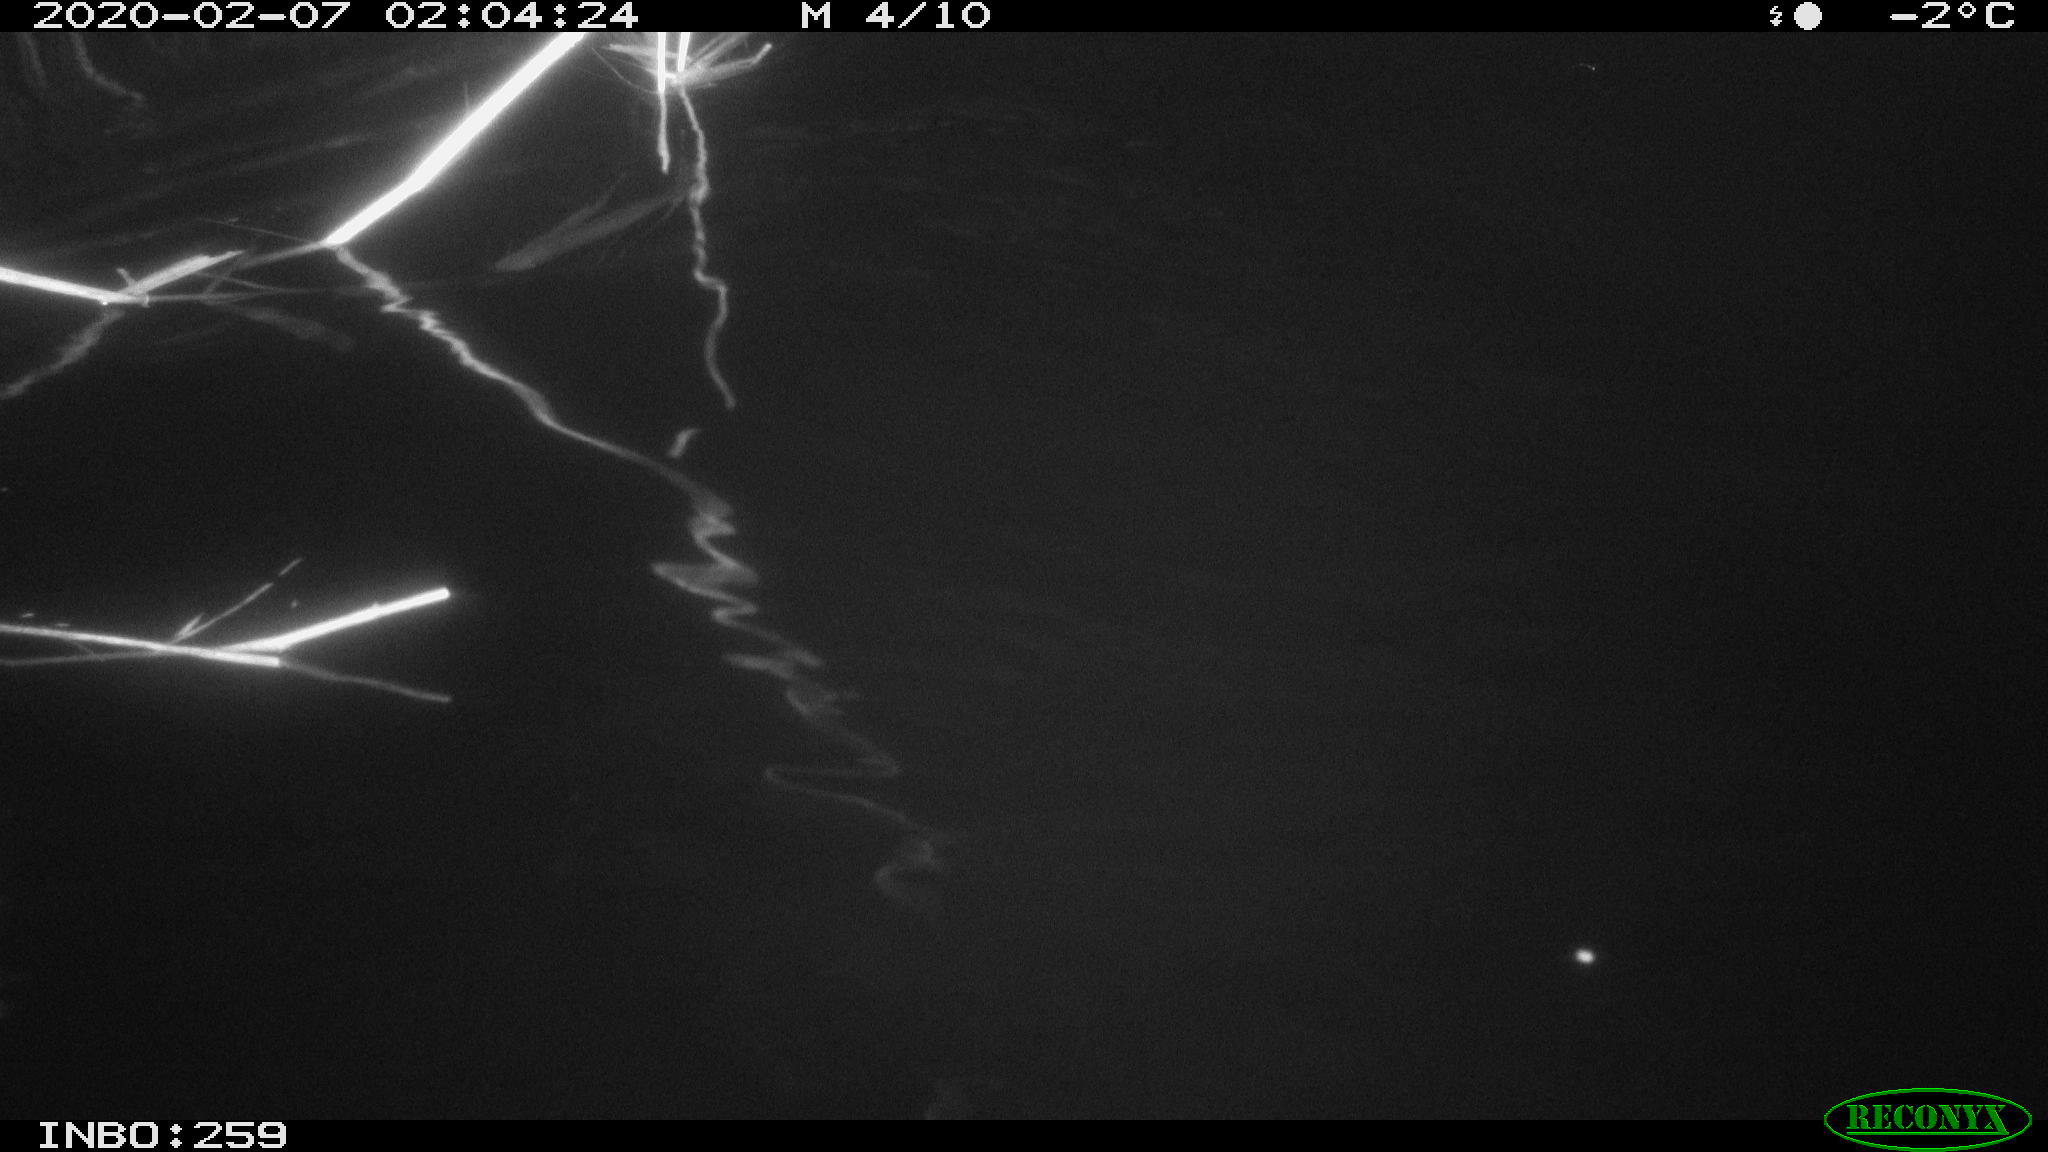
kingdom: Animalia
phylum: Chordata
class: Mammalia
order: Rodentia
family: Cricetidae
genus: Ondatra
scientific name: Ondatra zibethicus
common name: Muskrat
